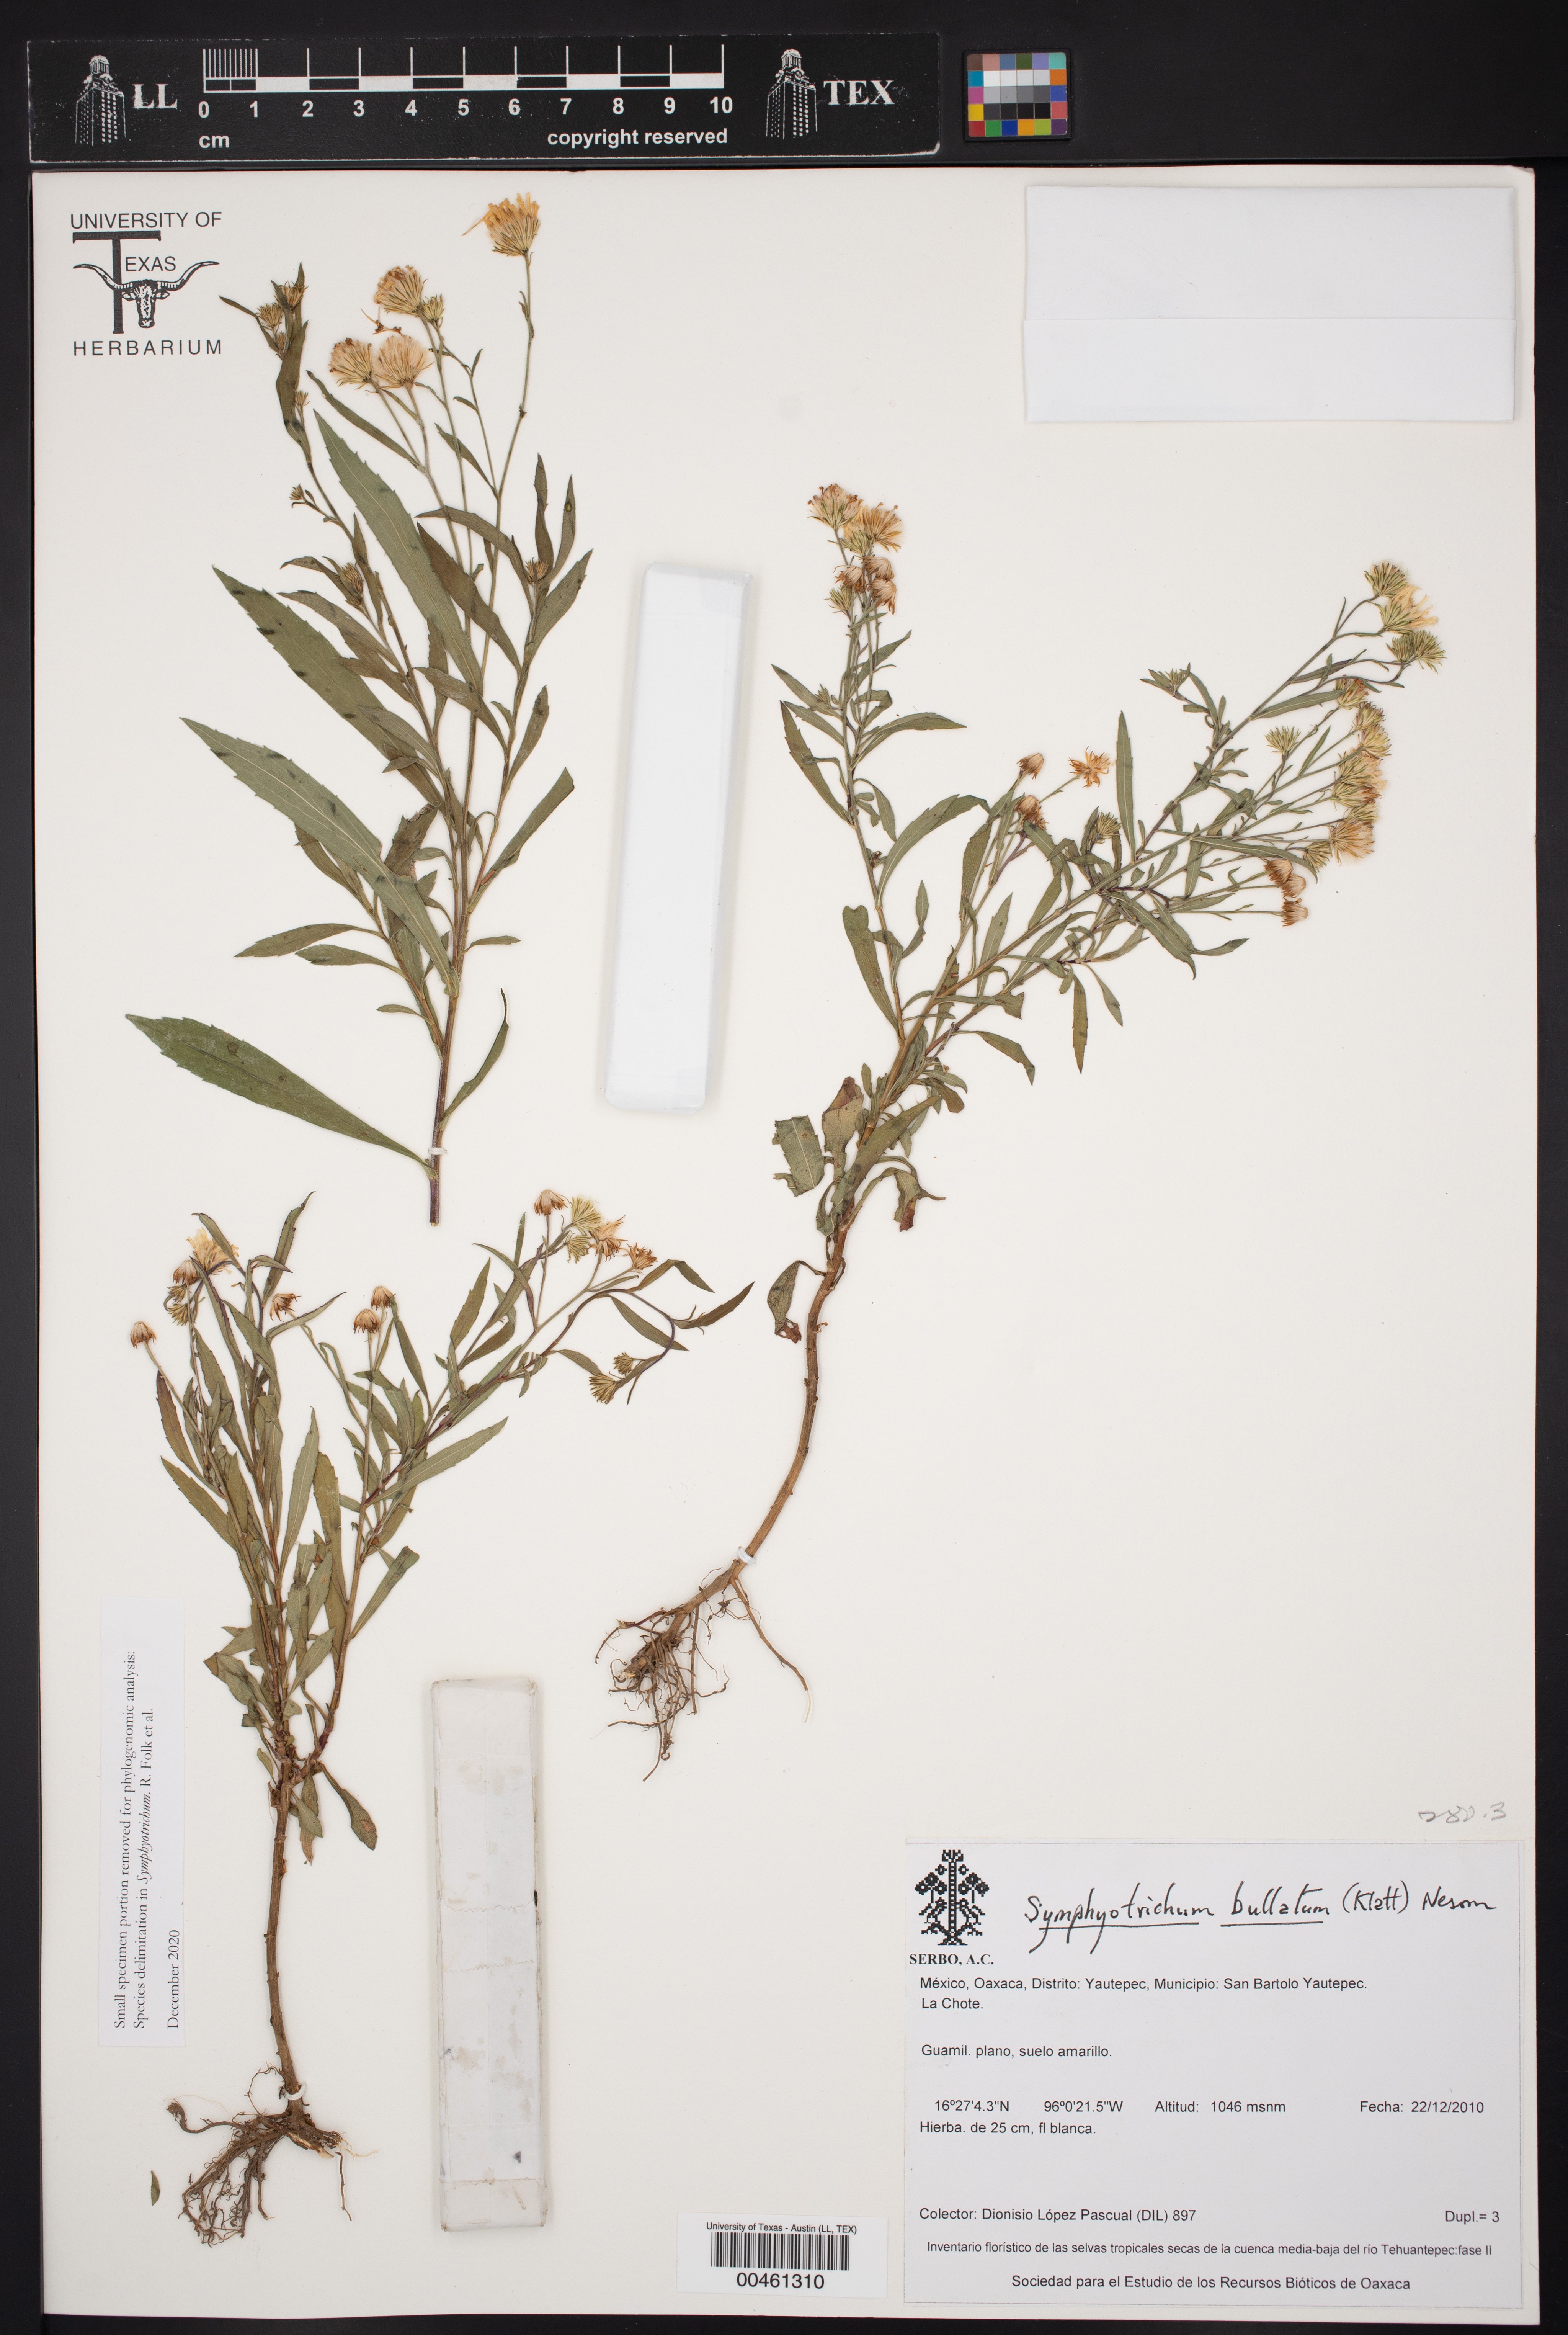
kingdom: Plantae
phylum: Tracheophyta
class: Magnoliopsida
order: Asterales
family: Asteraceae
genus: Symphyotrichum
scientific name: Symphyotrichum bullatum
